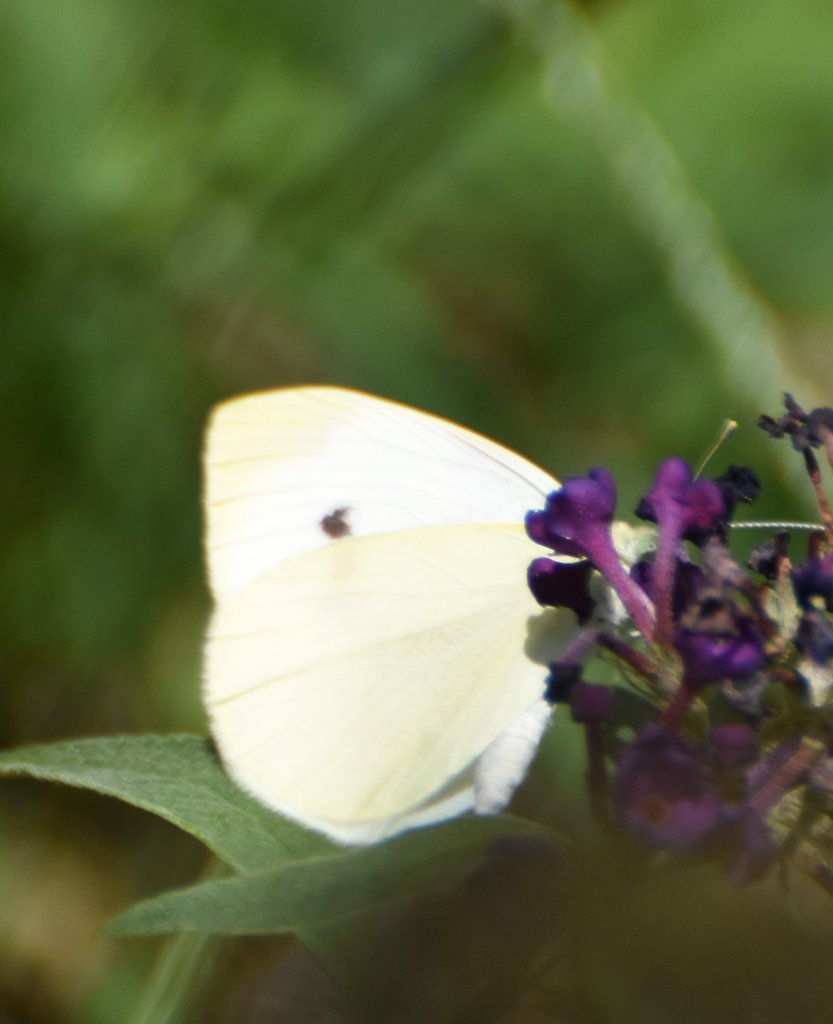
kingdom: Animalia
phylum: Arthropoda
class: Insecta
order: Lepidoptera
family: Pieridae
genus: Pieris
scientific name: Pieris rapae
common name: Cabbage White
